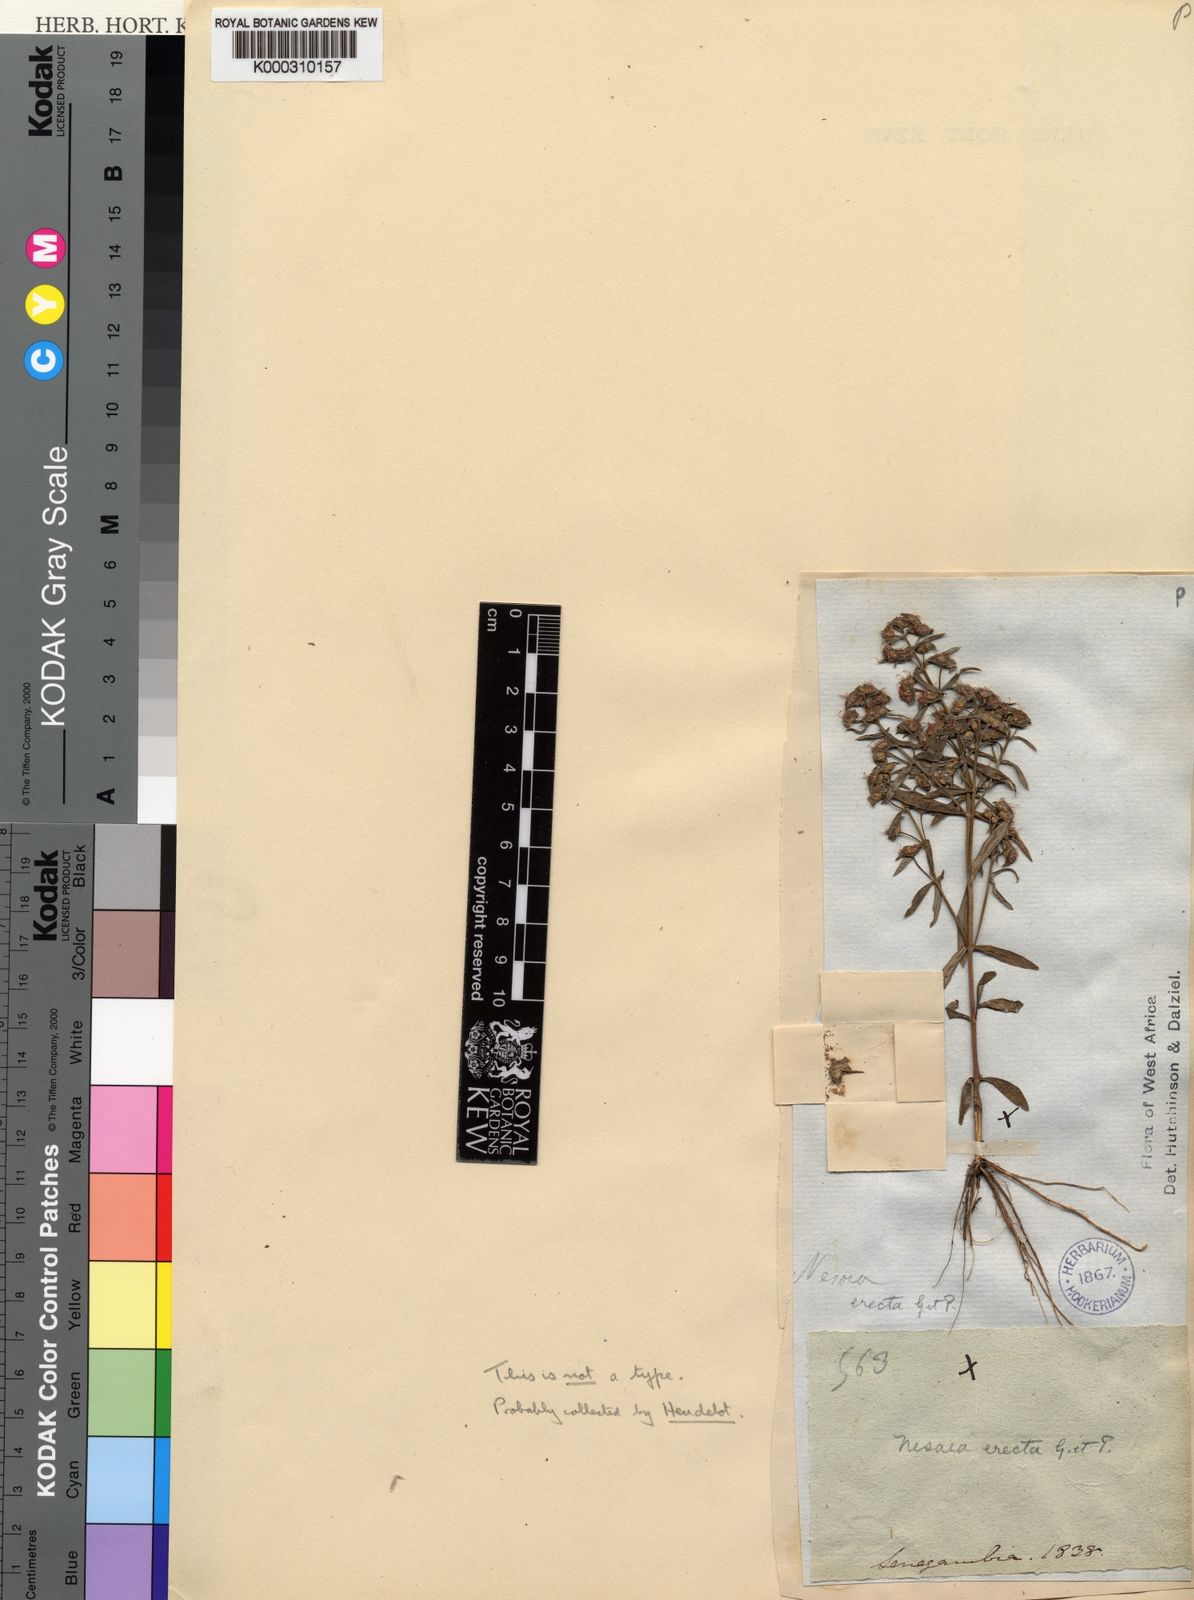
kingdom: Plantae
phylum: Tracheophyta
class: Magnoliopsida
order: Myrtales
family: Lythraceae
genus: Ammannia
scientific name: Ammannia erecta
